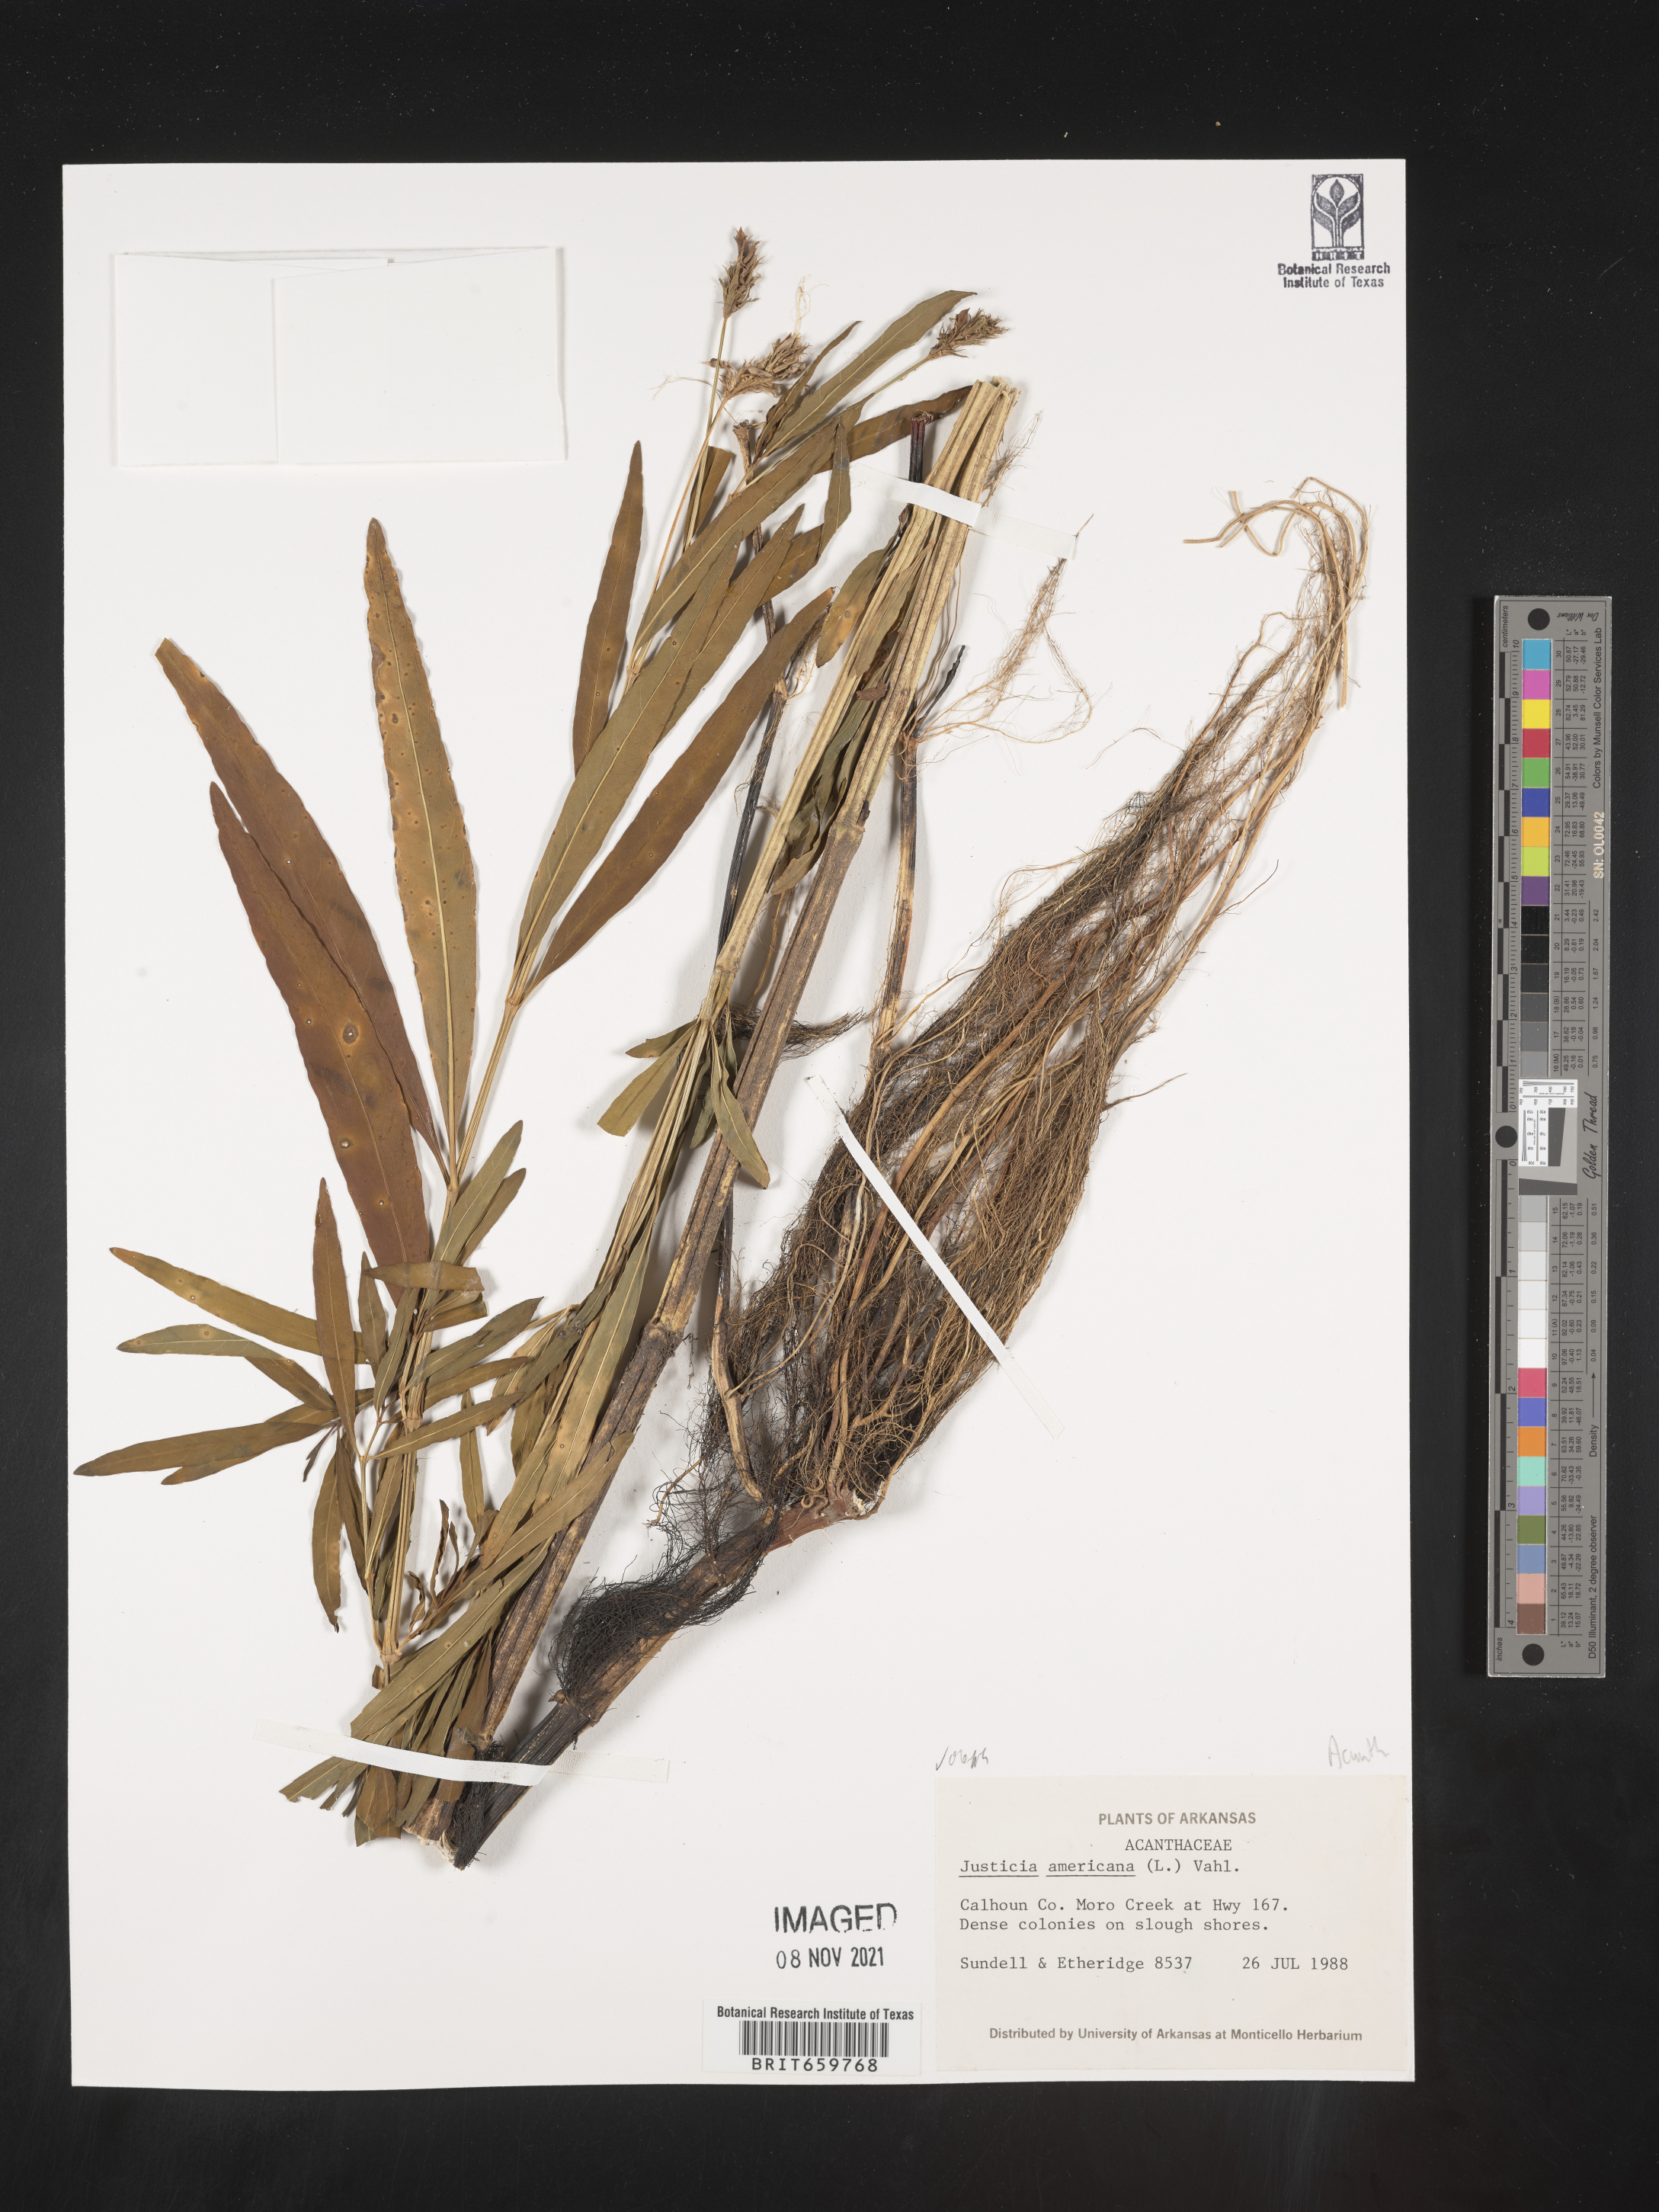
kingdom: Plantae
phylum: Tracheophyta
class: Magnoliopsida
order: Lamiales
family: Acanthaceae
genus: Dianthera
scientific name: Dianthera americana
